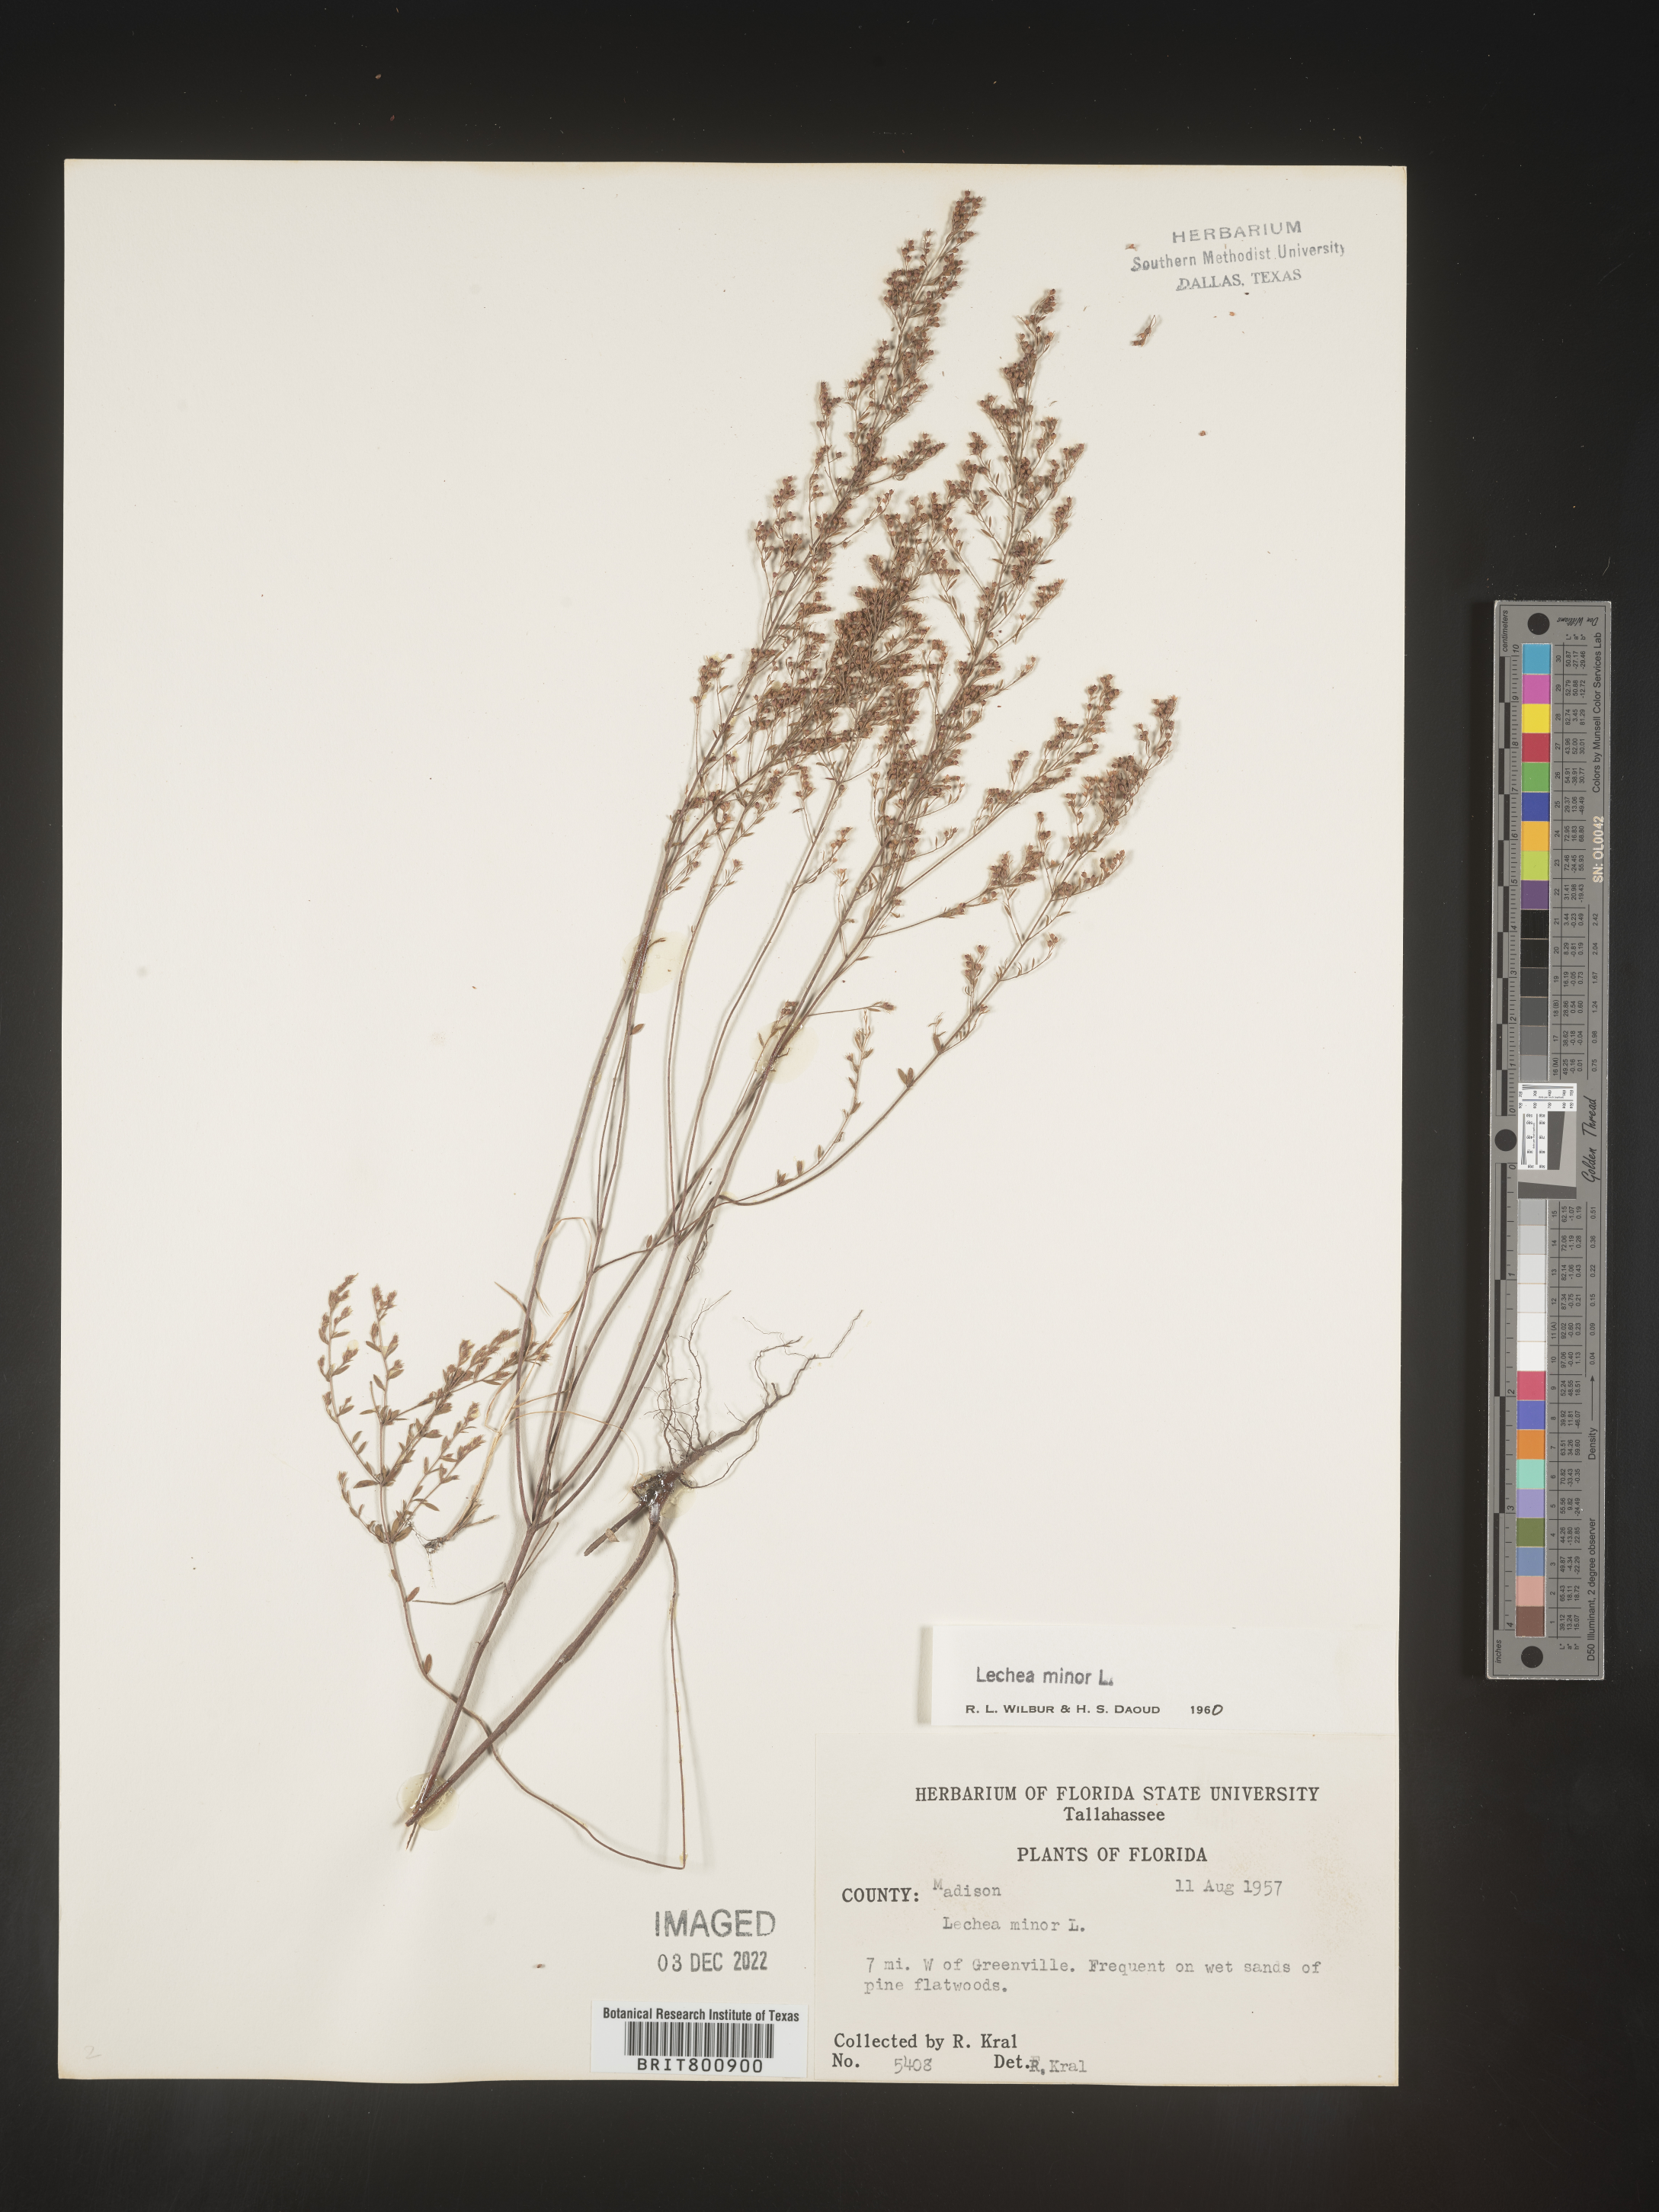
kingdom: Plantae
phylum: Tracheophyta
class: Magnoliopsida
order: Malvales
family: Cistaceae
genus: Lechea
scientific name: Lechea minor
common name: Thyme-leaf pinweed
